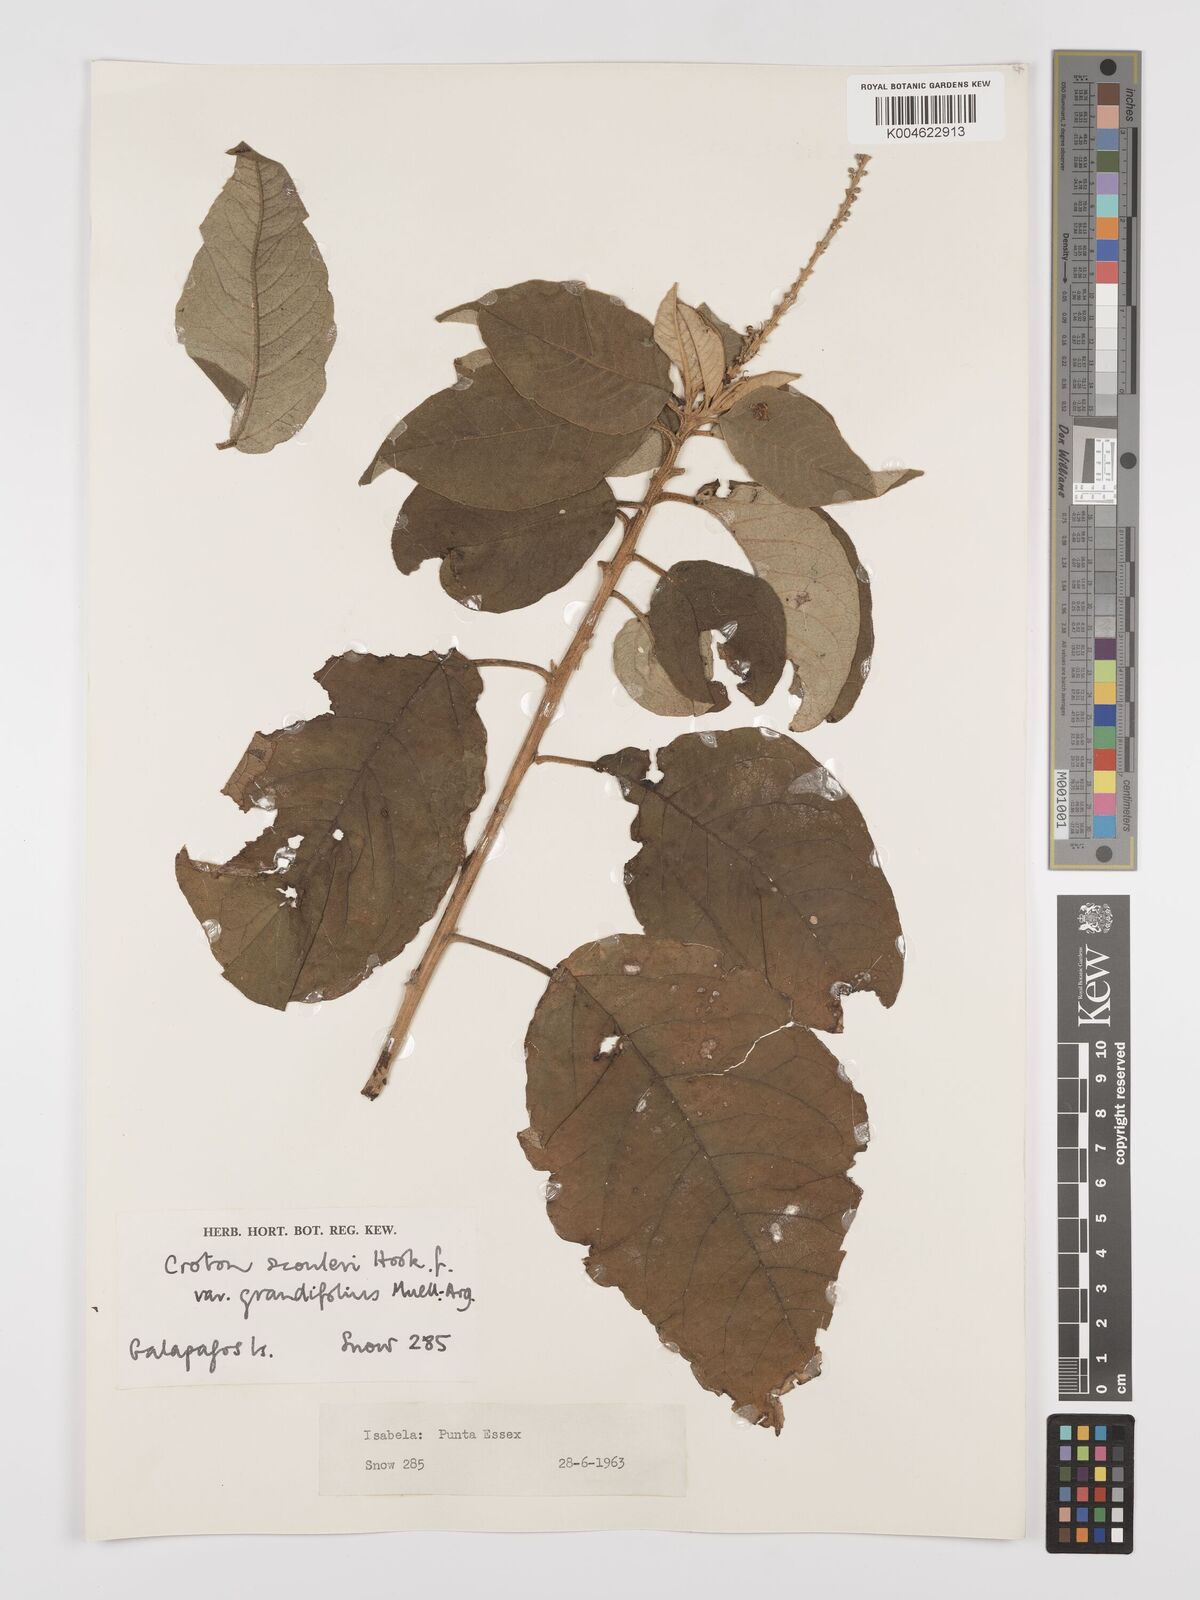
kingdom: Plantae
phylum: Tracheophyta
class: Magnoliopsida
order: Malpighiales
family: Euphorbiaceae
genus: Croton
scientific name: Croton scouleri
